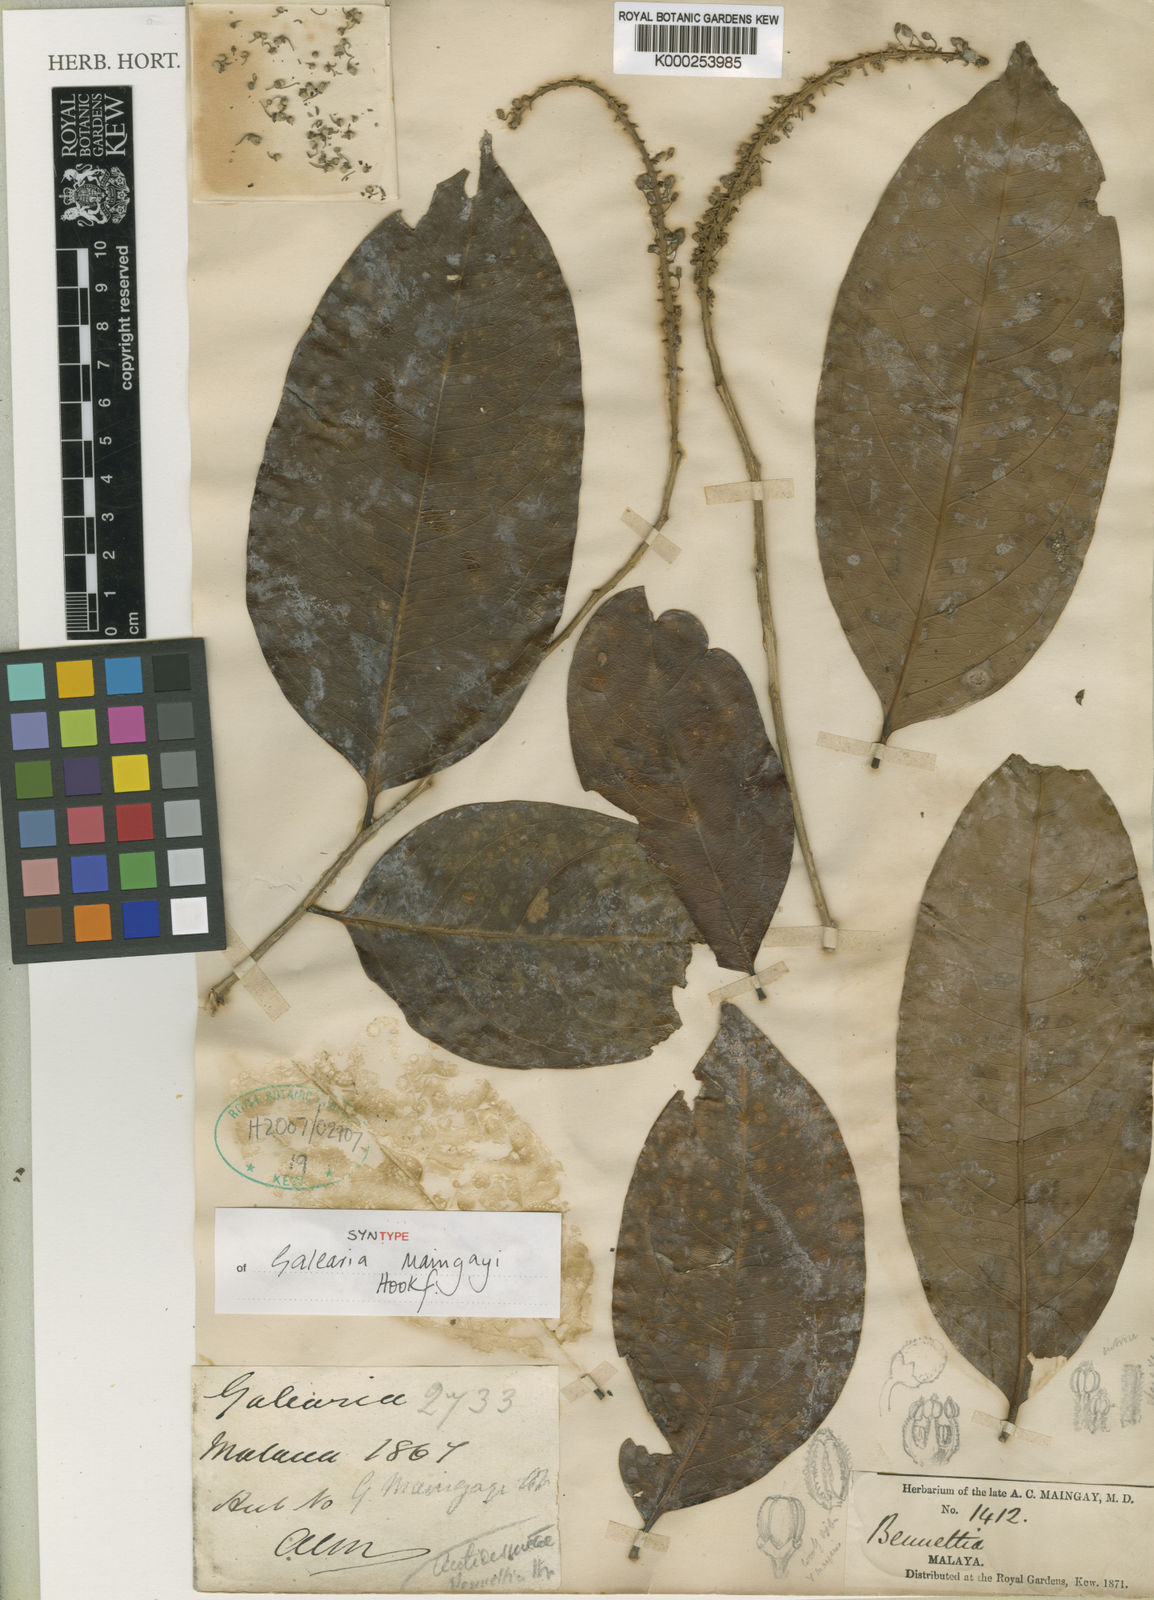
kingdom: Plantae
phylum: Tracheophyta
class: Magnoliopsida
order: Malpighiales
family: Pandaceae
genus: Galearia
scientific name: Galearia maingayi
